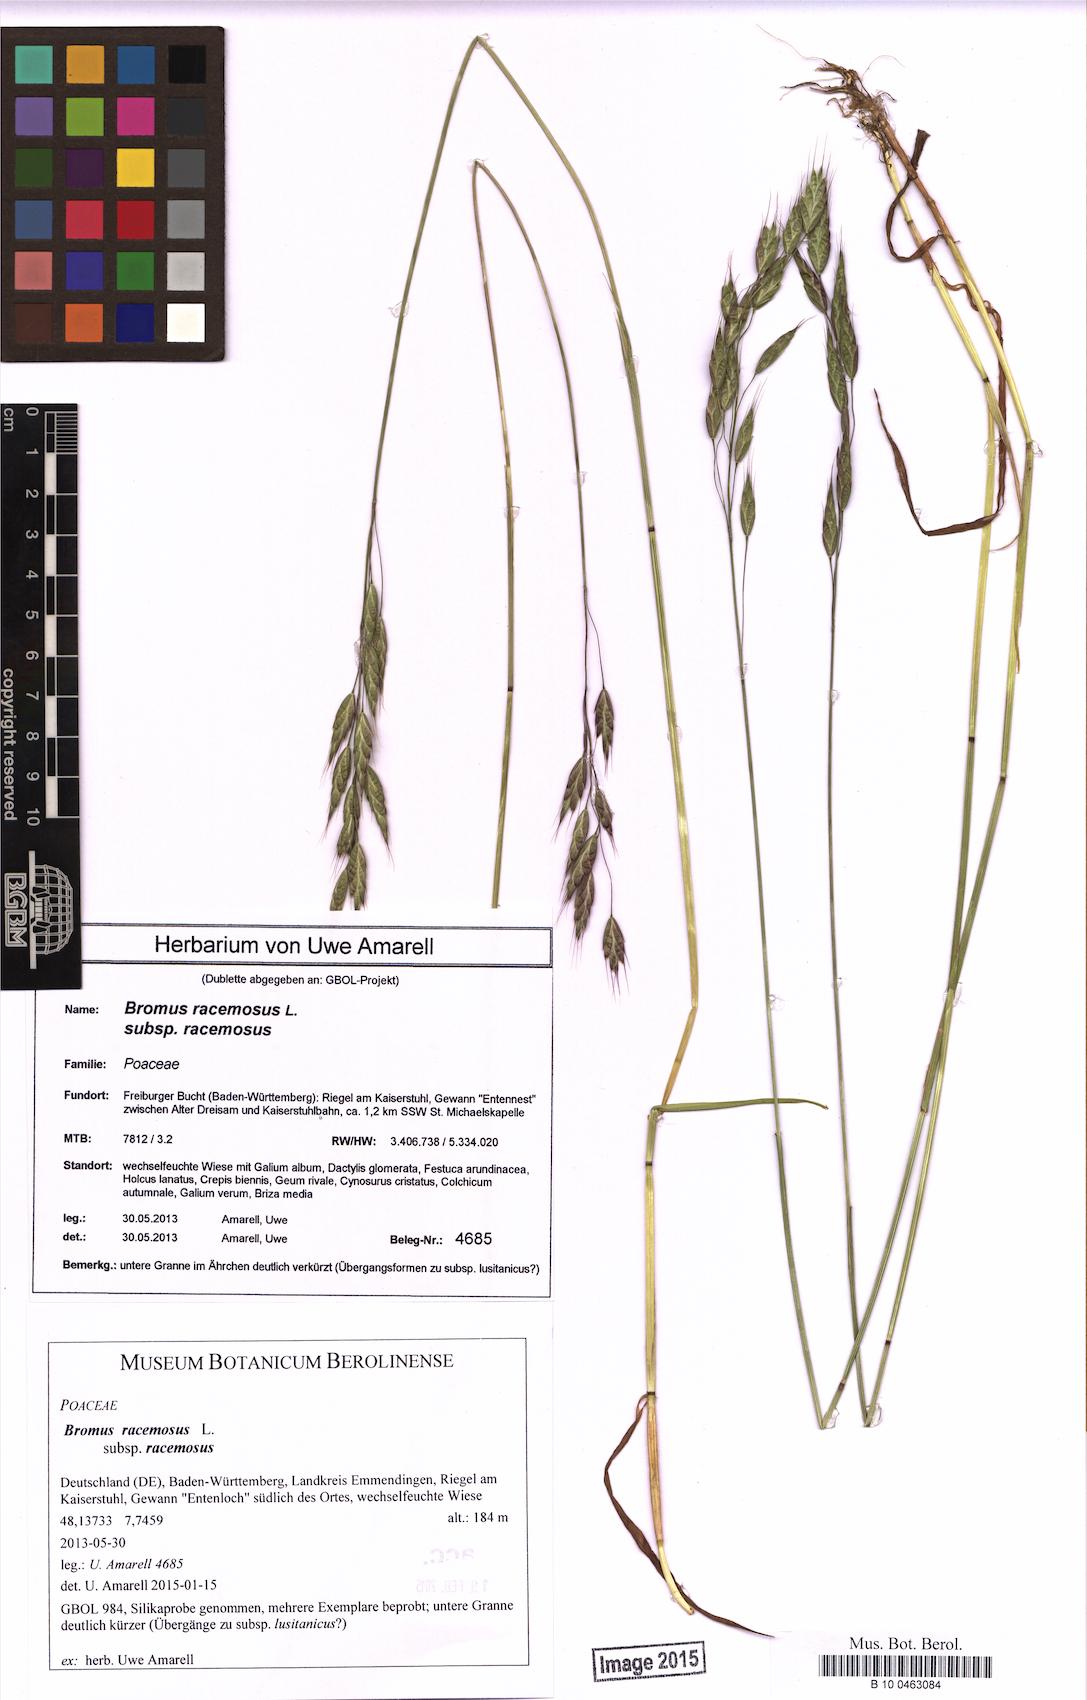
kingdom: Plantae
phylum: Tracheophyta
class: Liliopsida
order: Poales
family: Poaceae
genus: Bromus
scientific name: Bromus racemosus
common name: Bald brome
